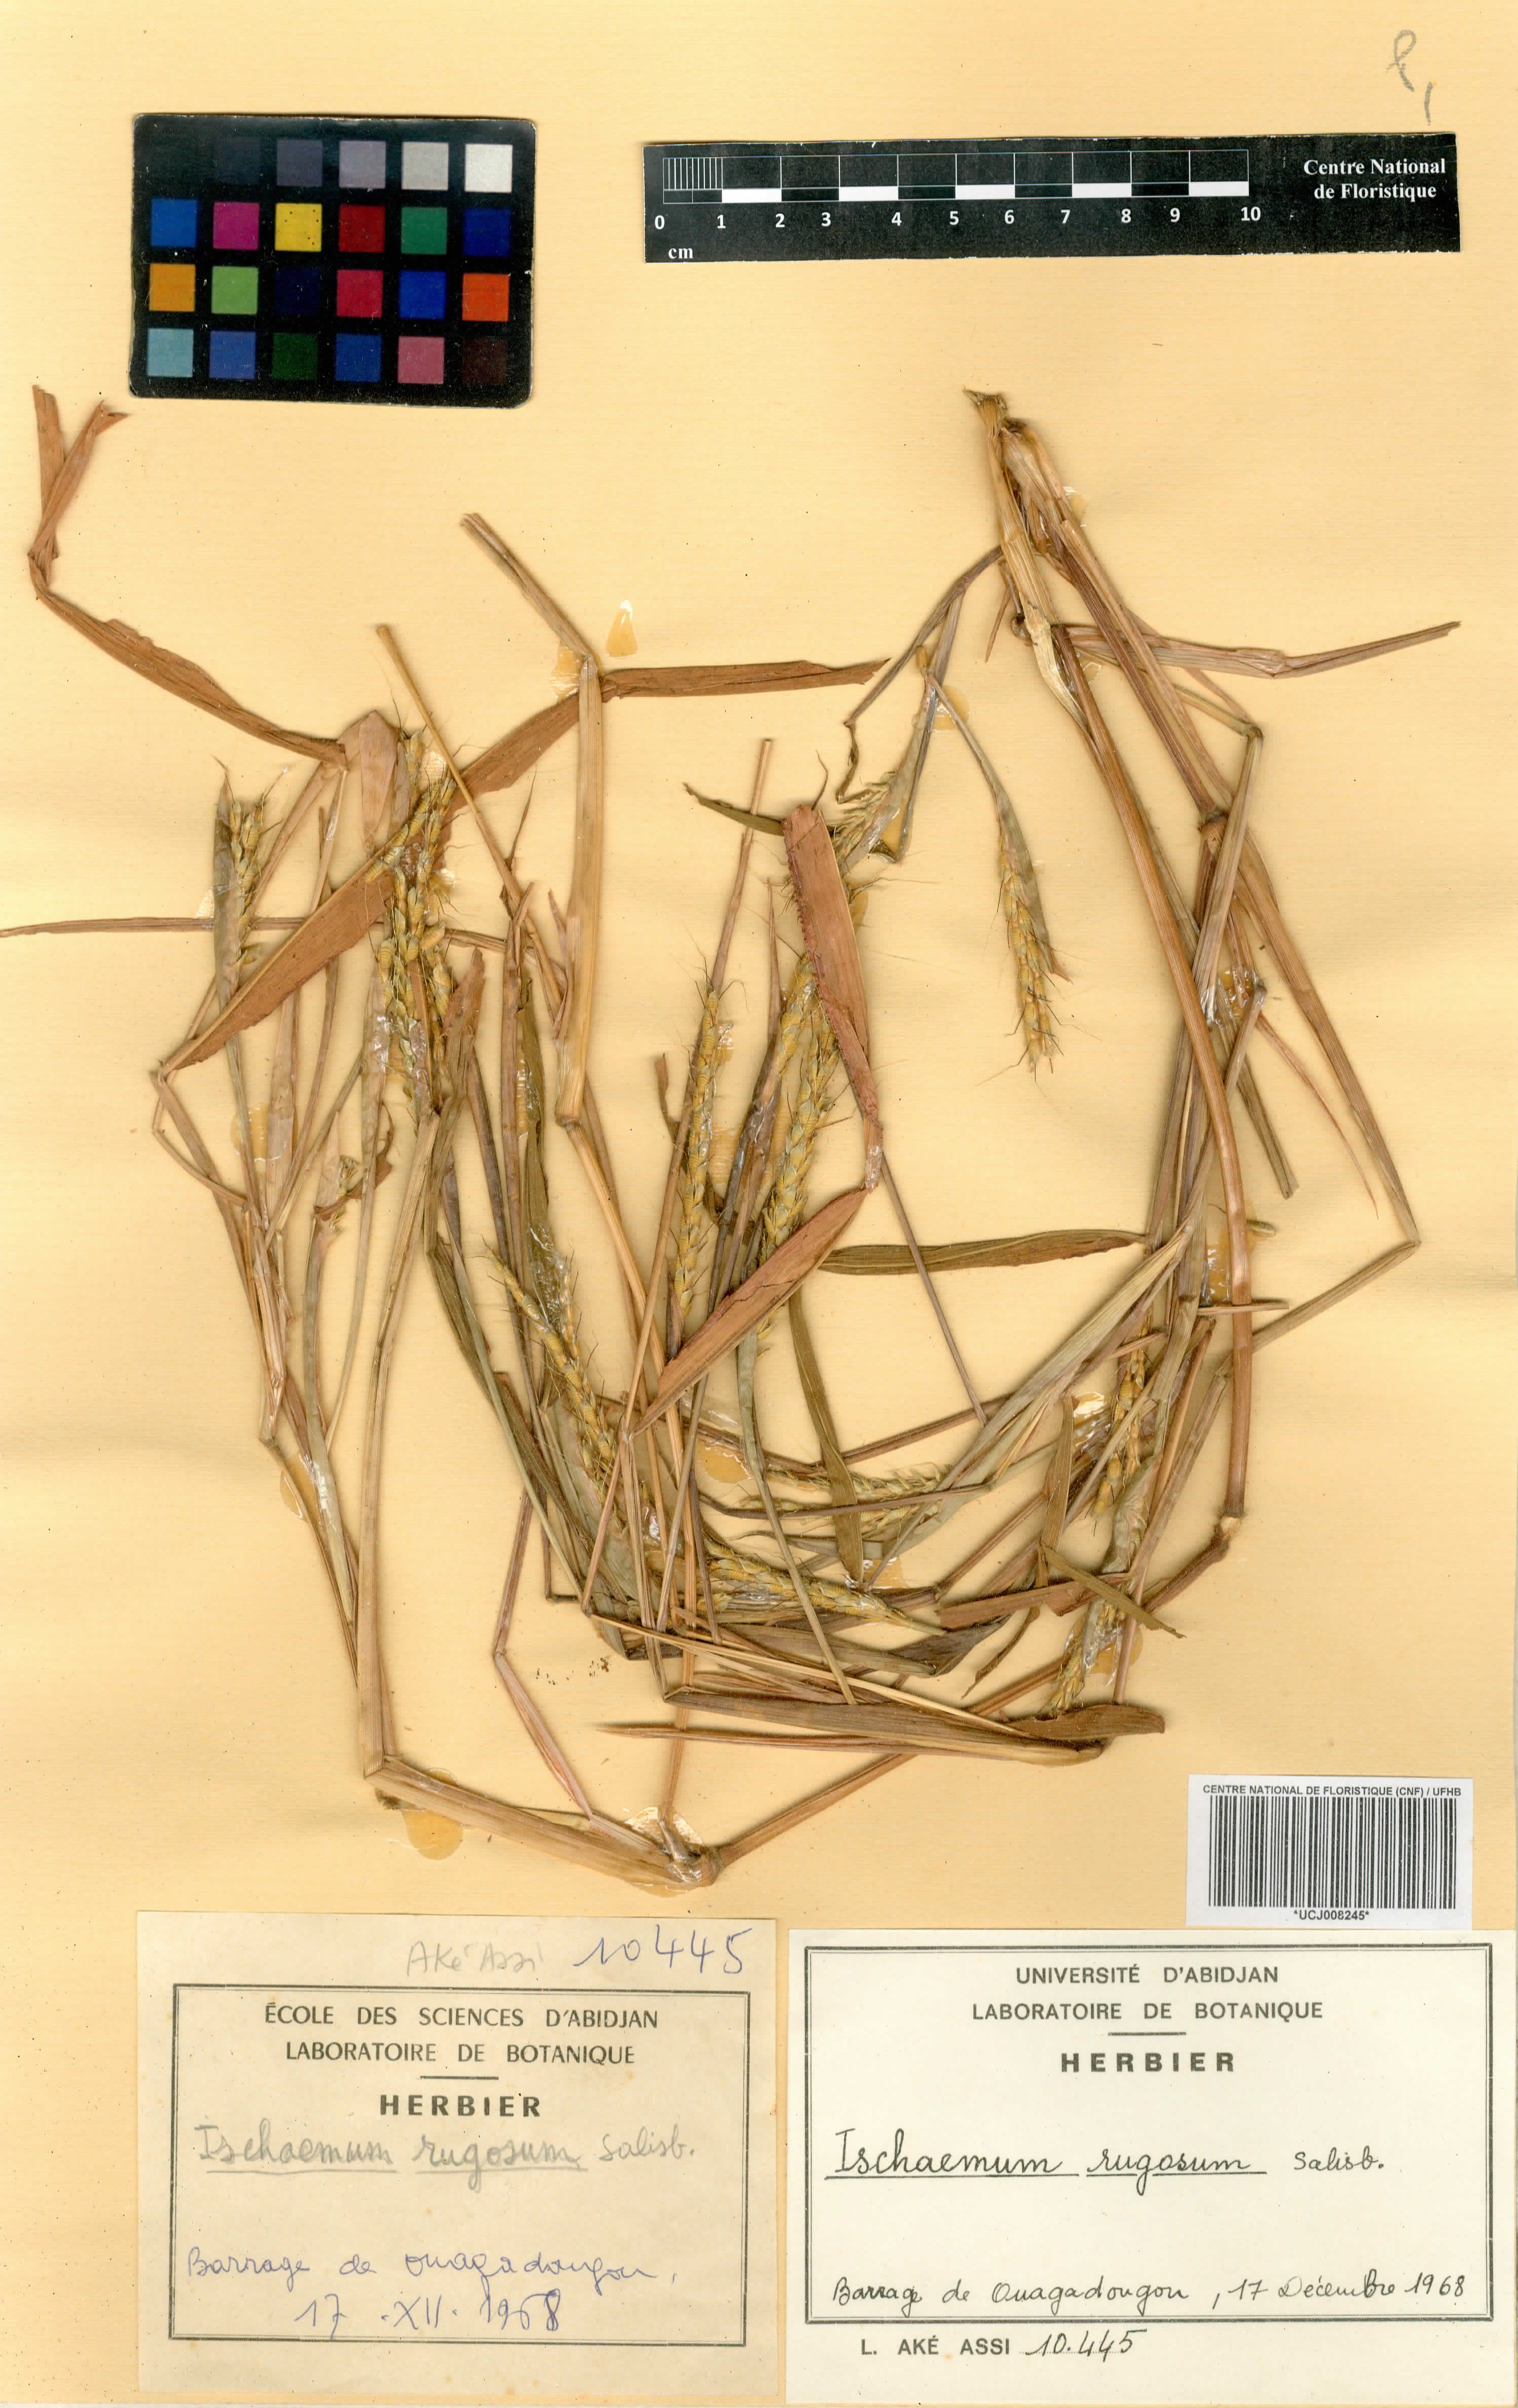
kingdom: Plantae
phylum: Tracheophyta
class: Liliopsida
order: Poales
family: Poaceae
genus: Ischaemum
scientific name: Ischaemum rugosum
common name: Saramatta grass
